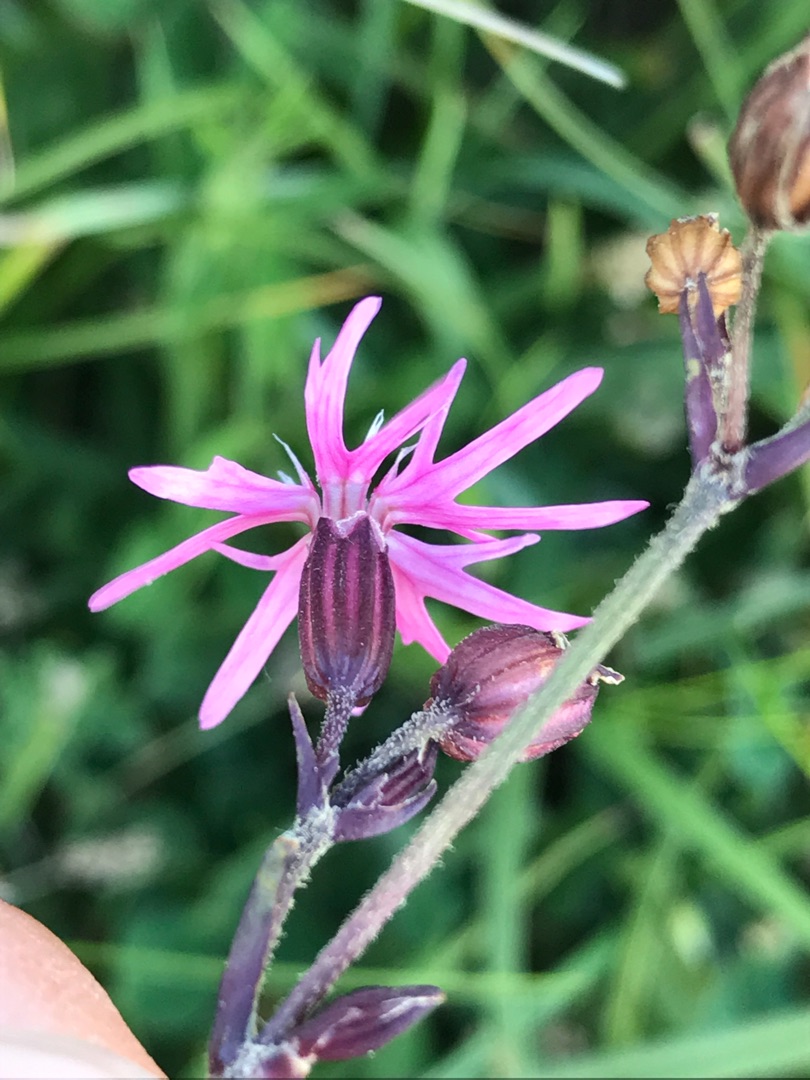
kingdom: Plantae
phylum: Tracheophyta
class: Magnoliopsida
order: Caryophyllales
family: Caryophyllaceae
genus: Silene
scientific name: Silene flos-cuculi
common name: Trævlekrone
